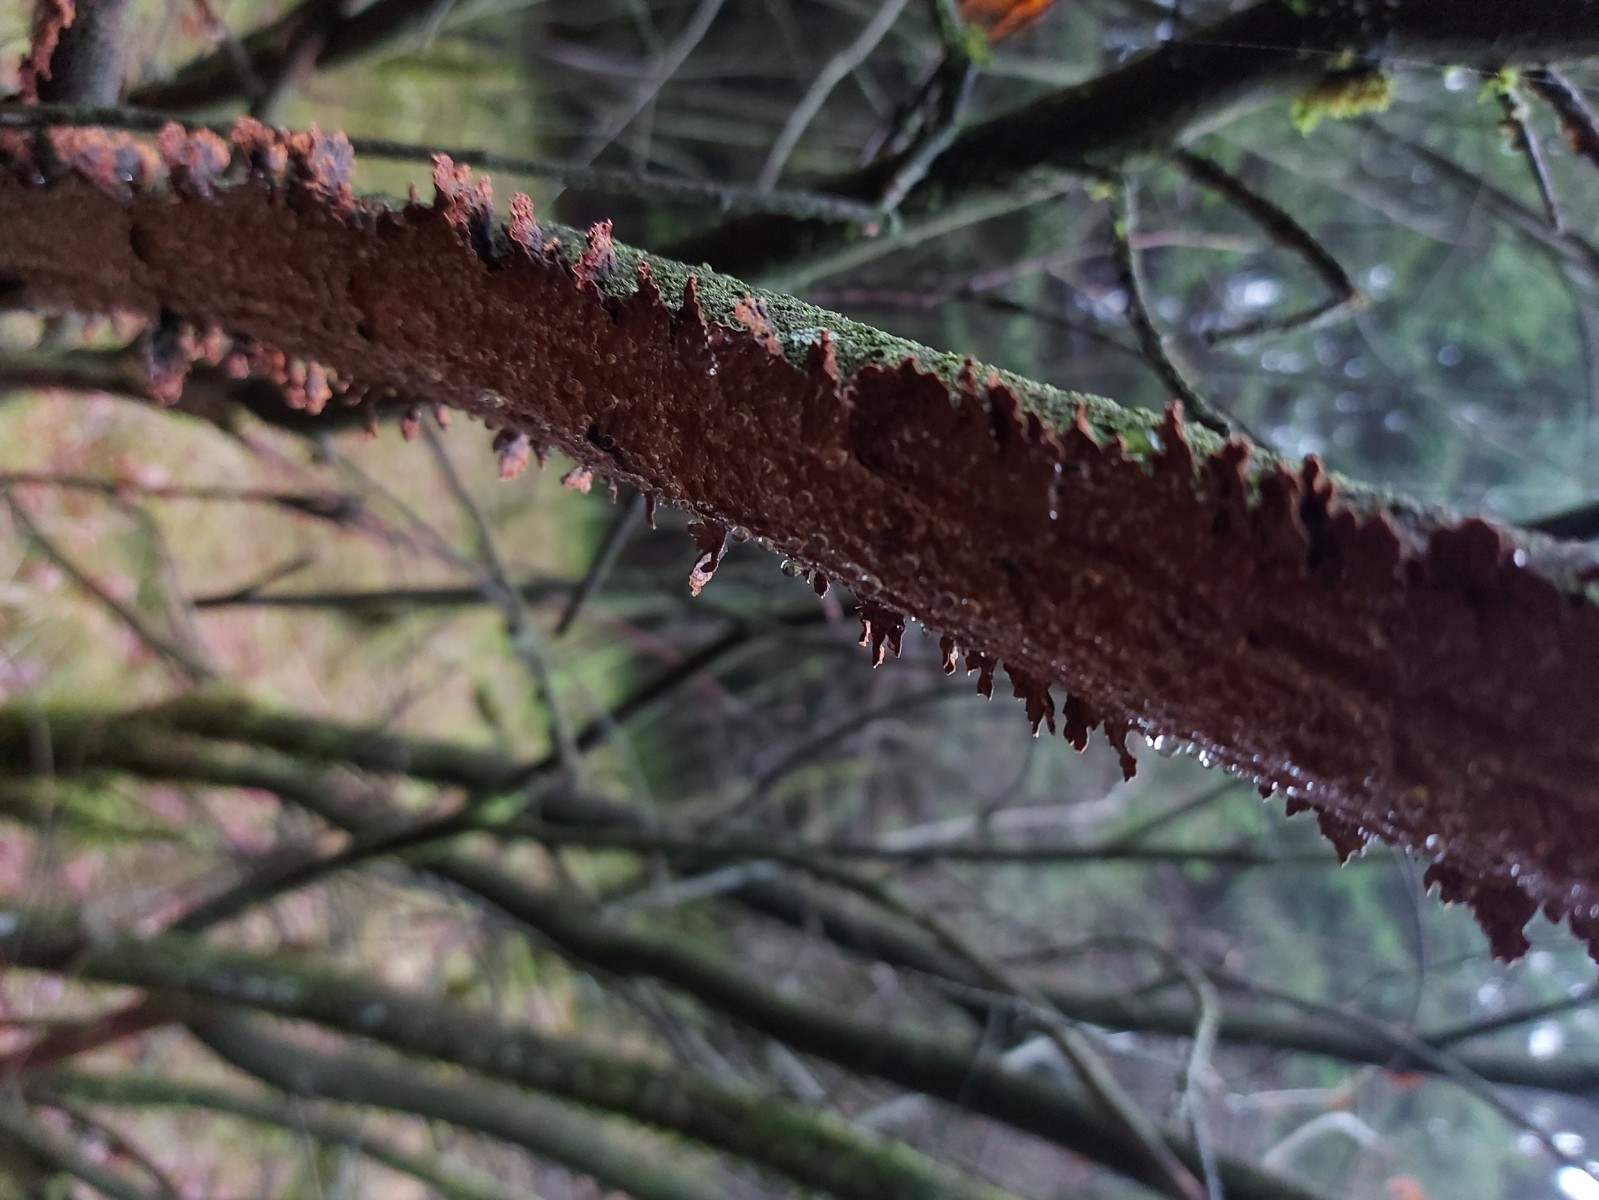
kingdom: Fungi
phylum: Basidiomycota
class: Agaricomycetes
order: Hymenochaetales
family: Hymenochaetaceae
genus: Hydnoporia
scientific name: Hydnoporia tabacina
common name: tobaksbrun ruslædersvamp
